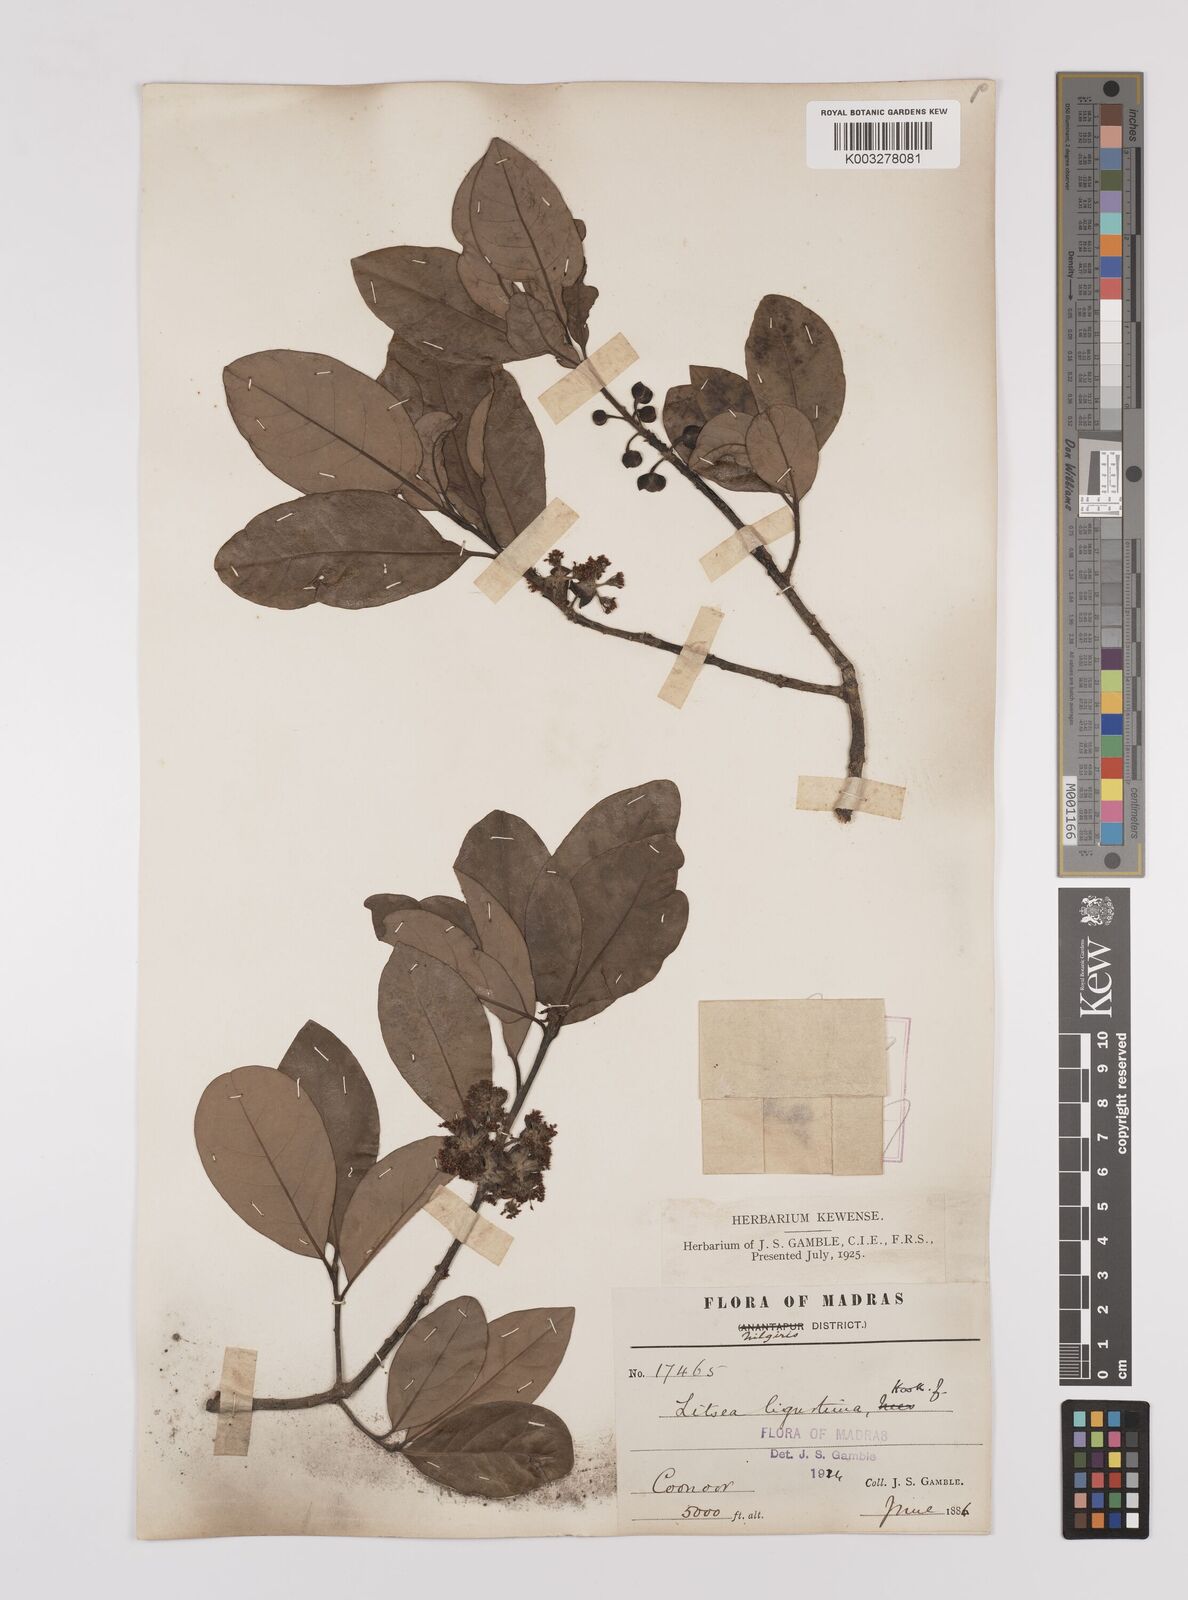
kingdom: Plantae
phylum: Tracheophyta
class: Magnoliopsida
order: Laurales
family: Lauraceae
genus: Litsea
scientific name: Litsea ligustrina
